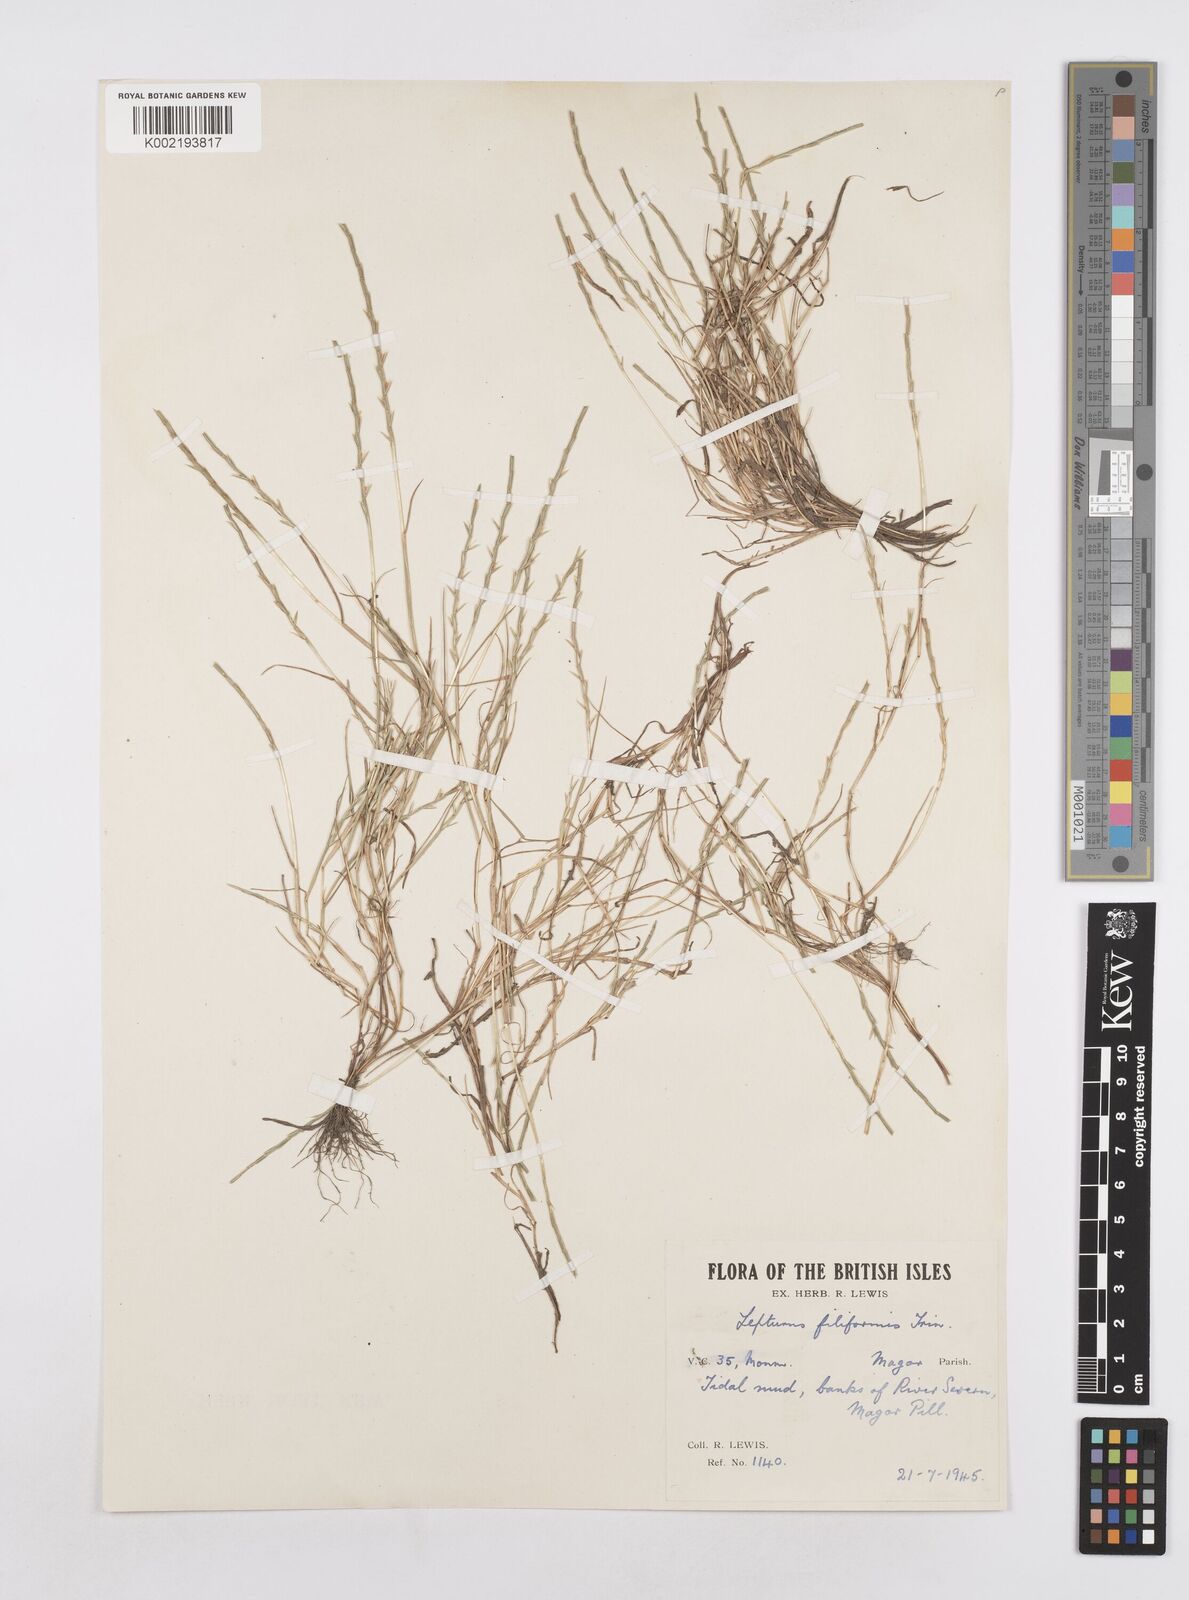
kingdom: Plantae
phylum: Tracheophyta
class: Liliopsida
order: Poales
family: Poaceae
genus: Parapholis
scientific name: Parapholis strigosa
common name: Hard-grass
